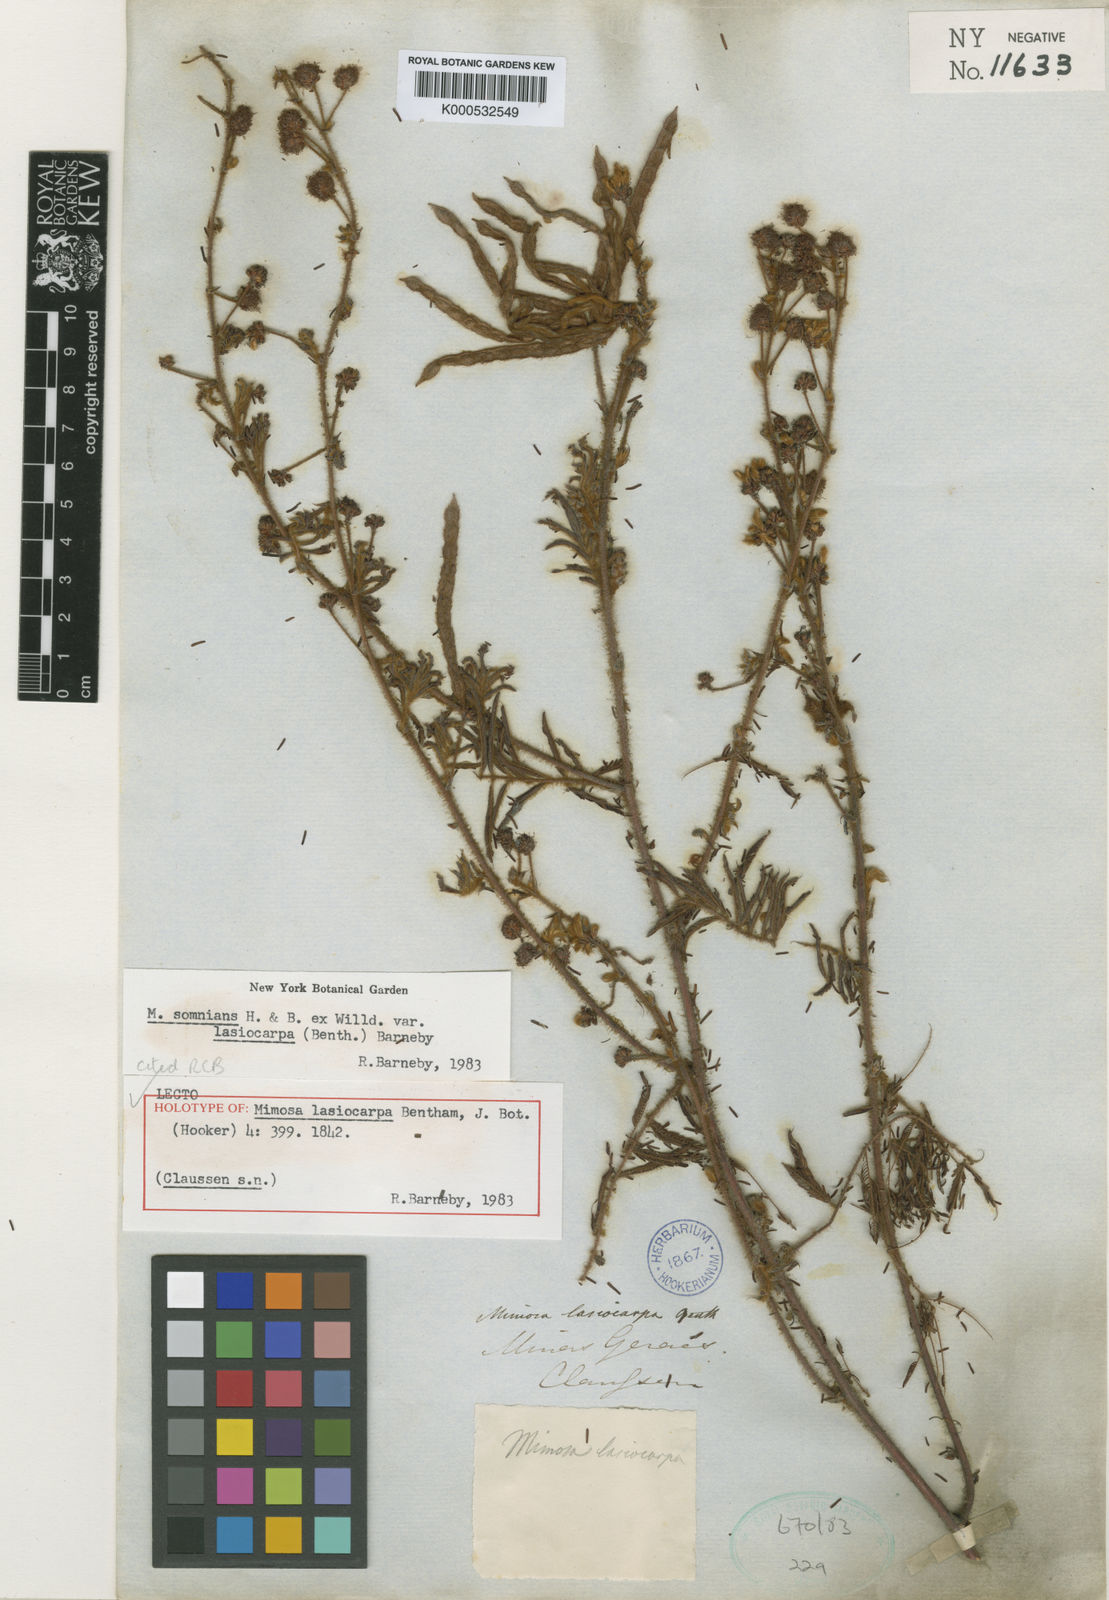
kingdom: Plantae
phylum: Tracheophyta
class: Magnoliopsida
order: Fabales
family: Fabaceae
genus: Mimosa
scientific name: Mimosa somnians
